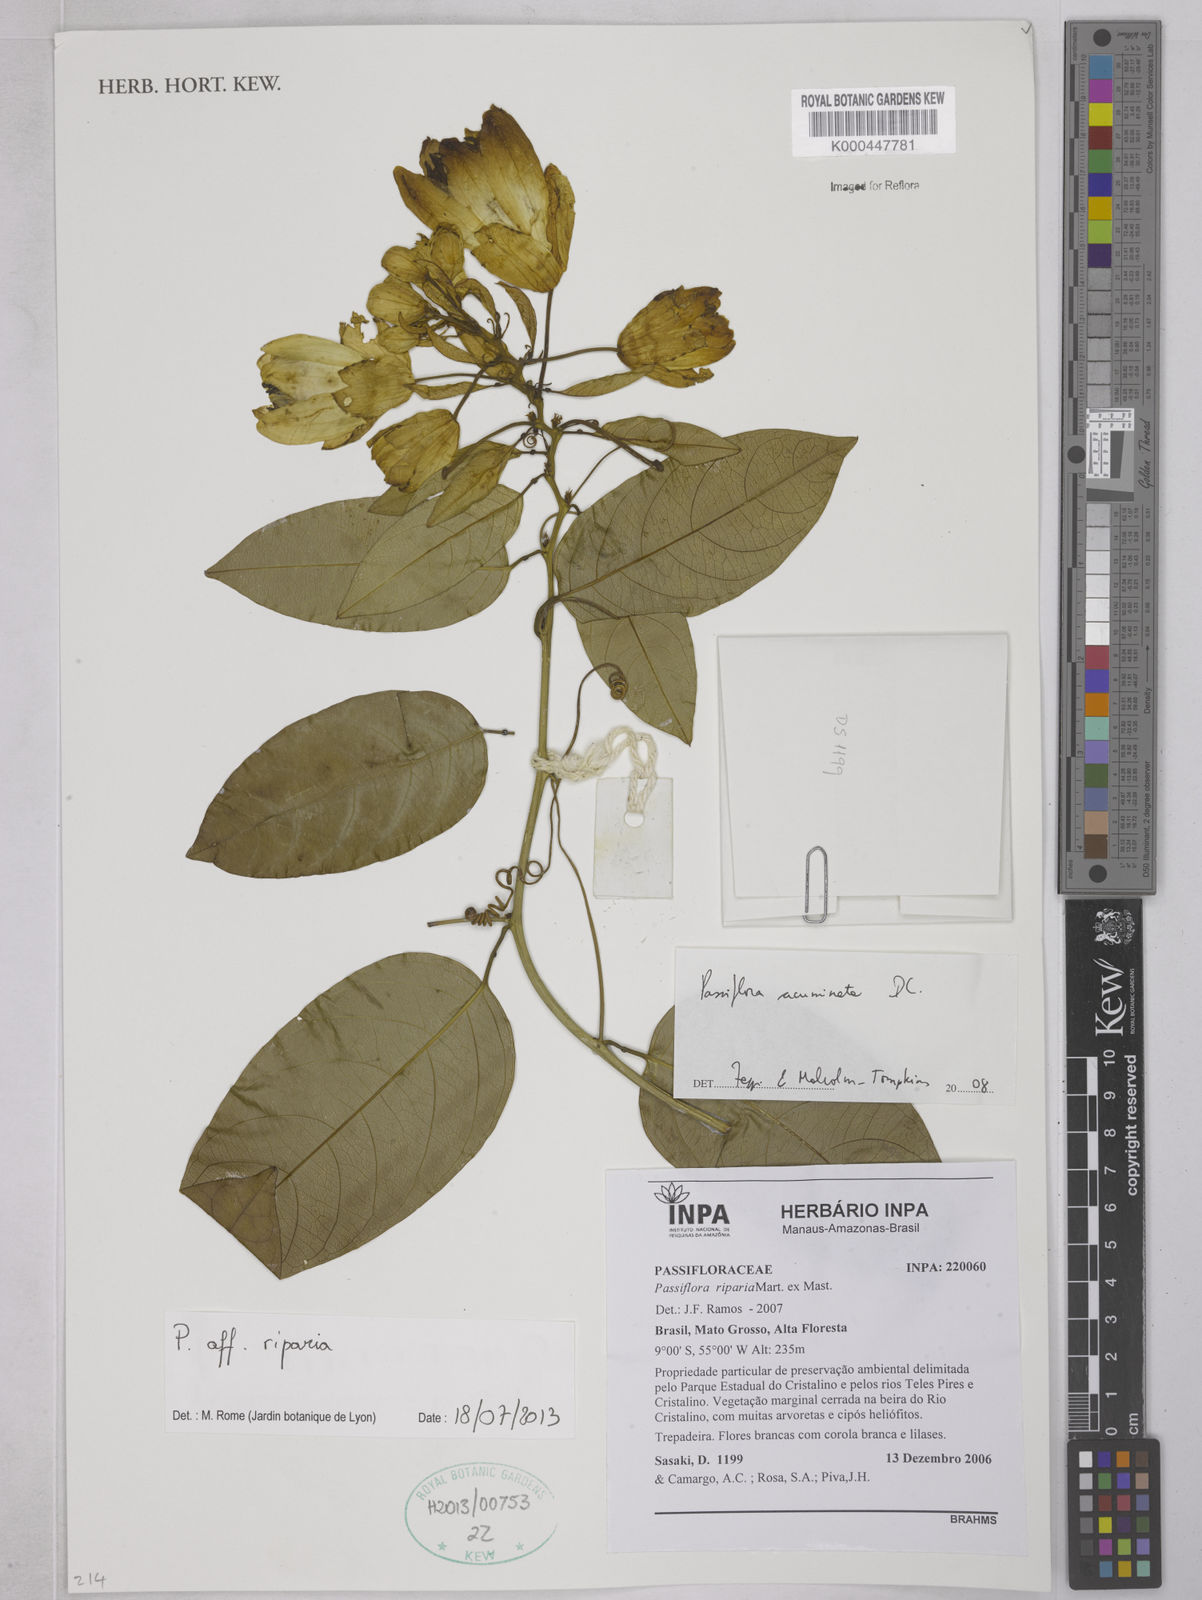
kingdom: Plantae
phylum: Tracheophyta
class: Magnoliopsida
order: Malpighiales
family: Passifloraceae
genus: Passiflora
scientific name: Passiflora acuminata
